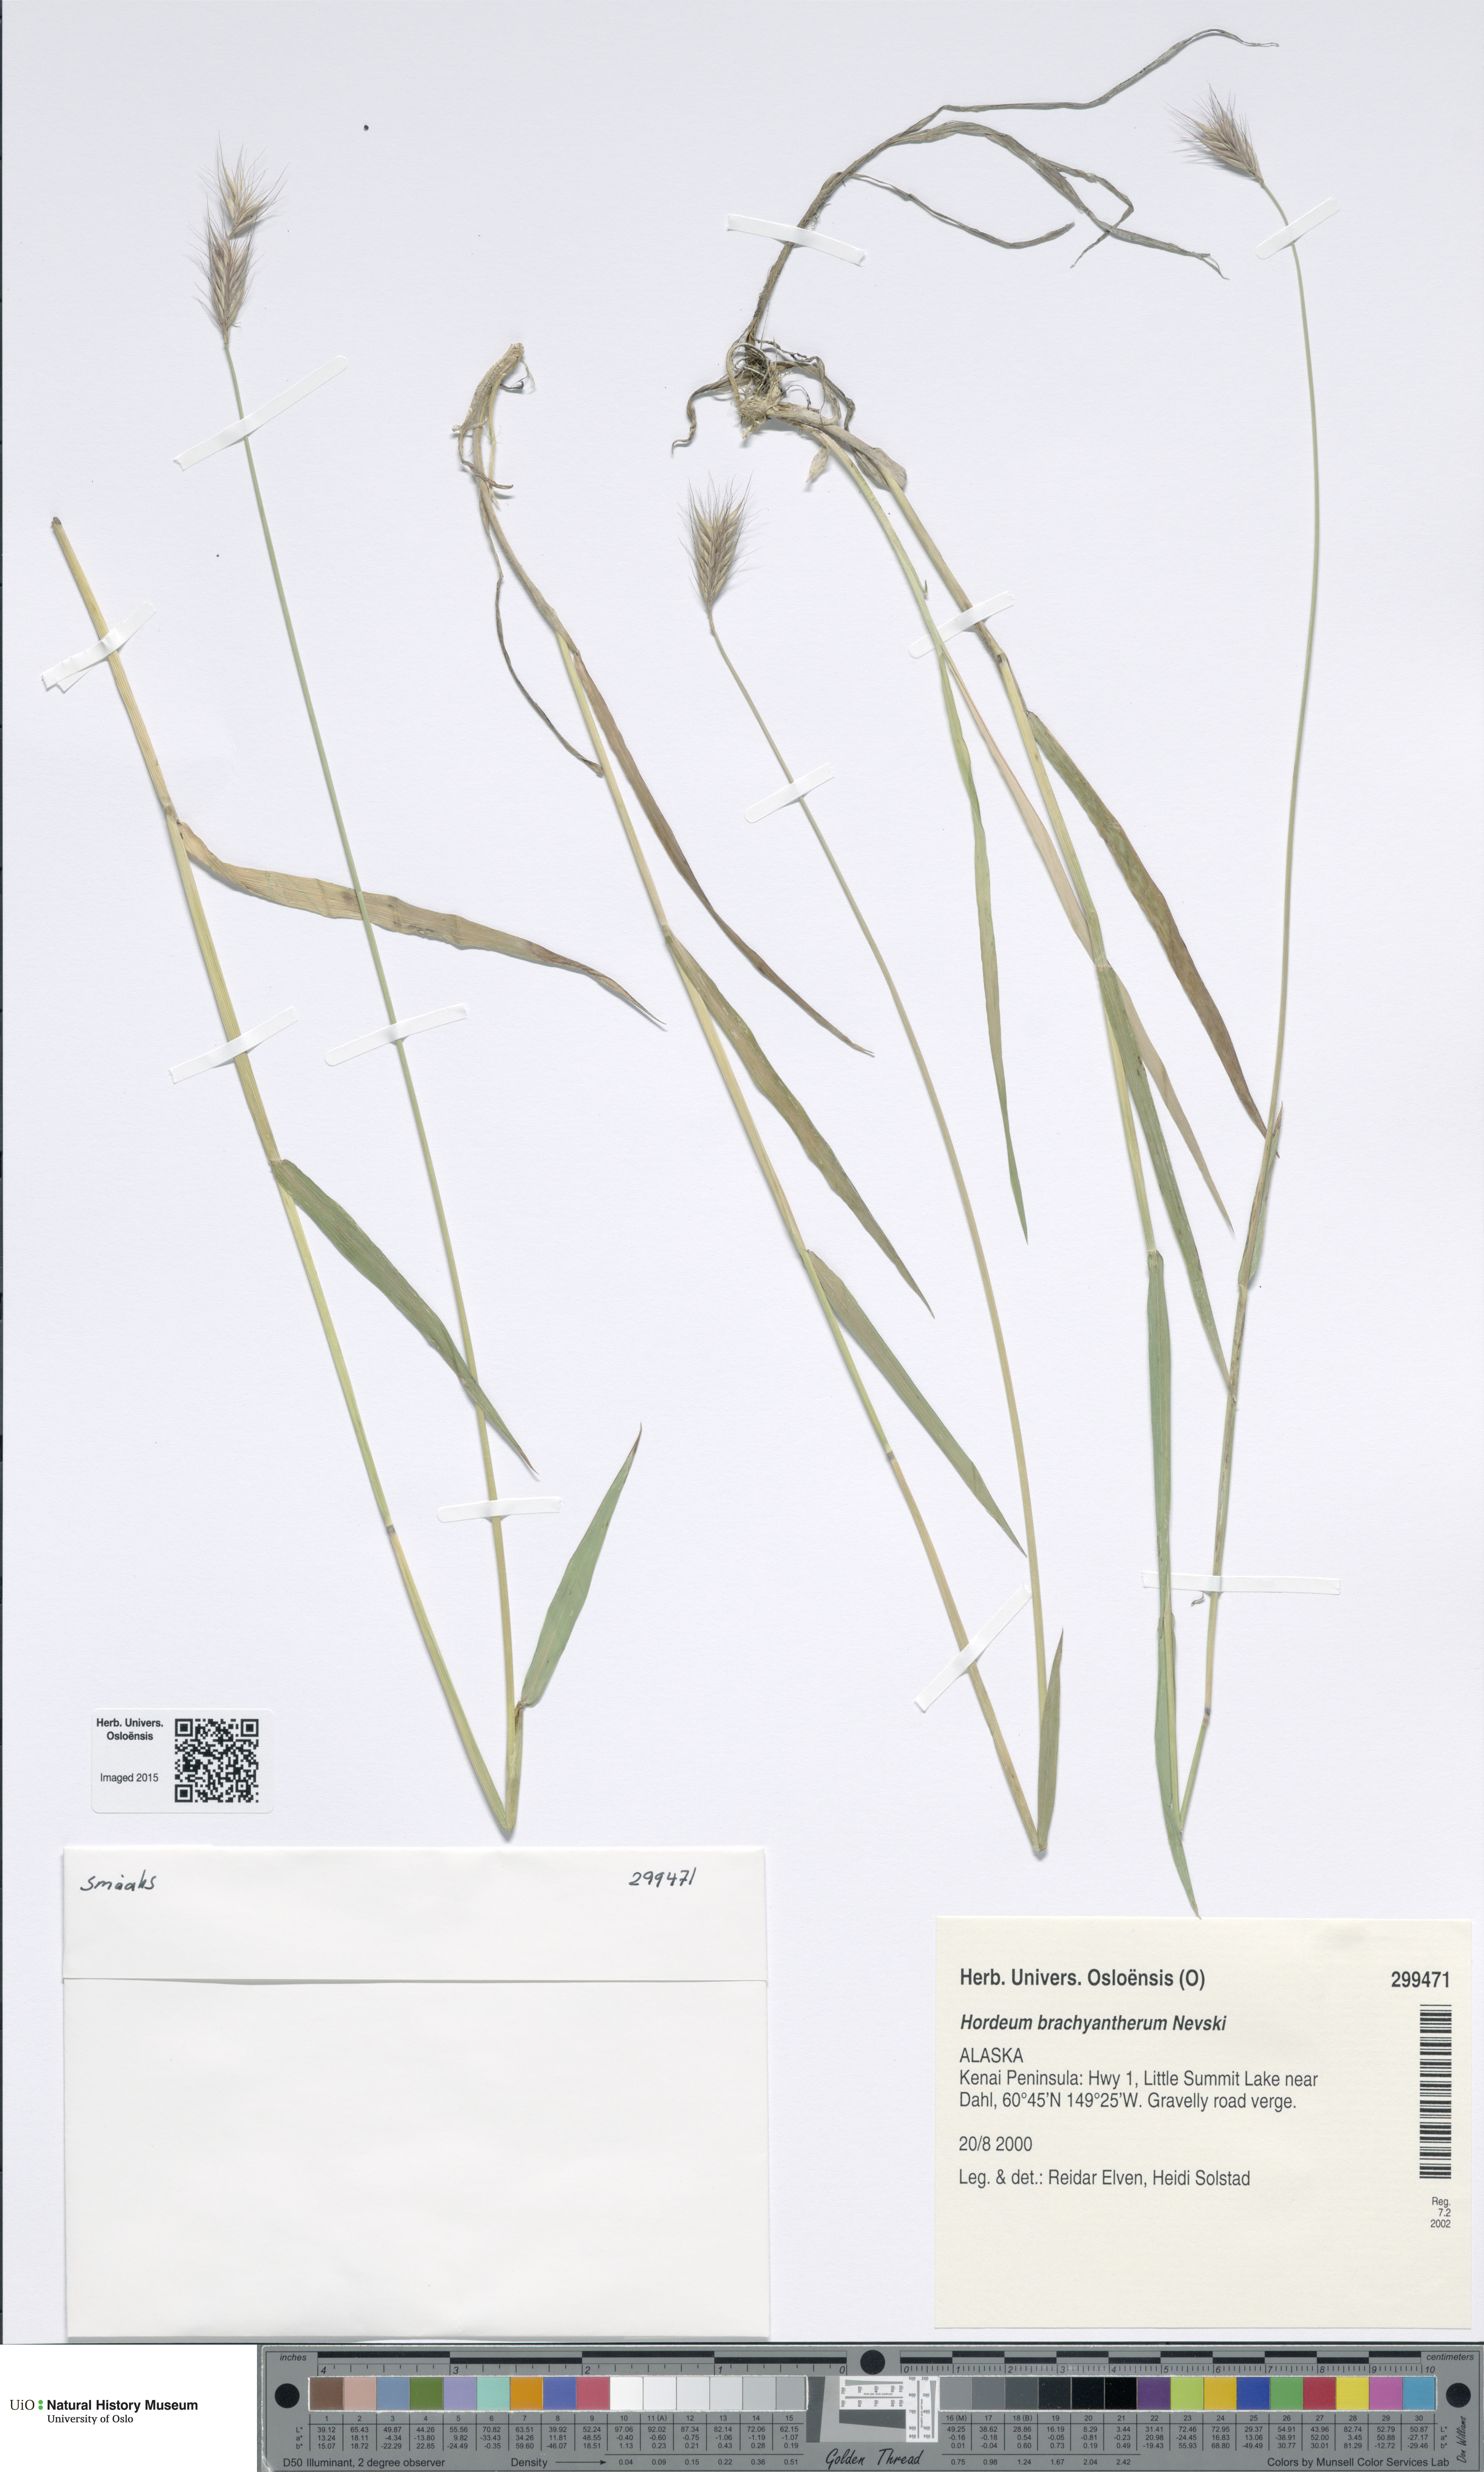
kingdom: Plantae
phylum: Tracheophyta
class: Liliopsida
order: Poales
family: Poaceae
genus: Hordeum
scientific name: Hordeum brachyantherum
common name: Meadow barley
